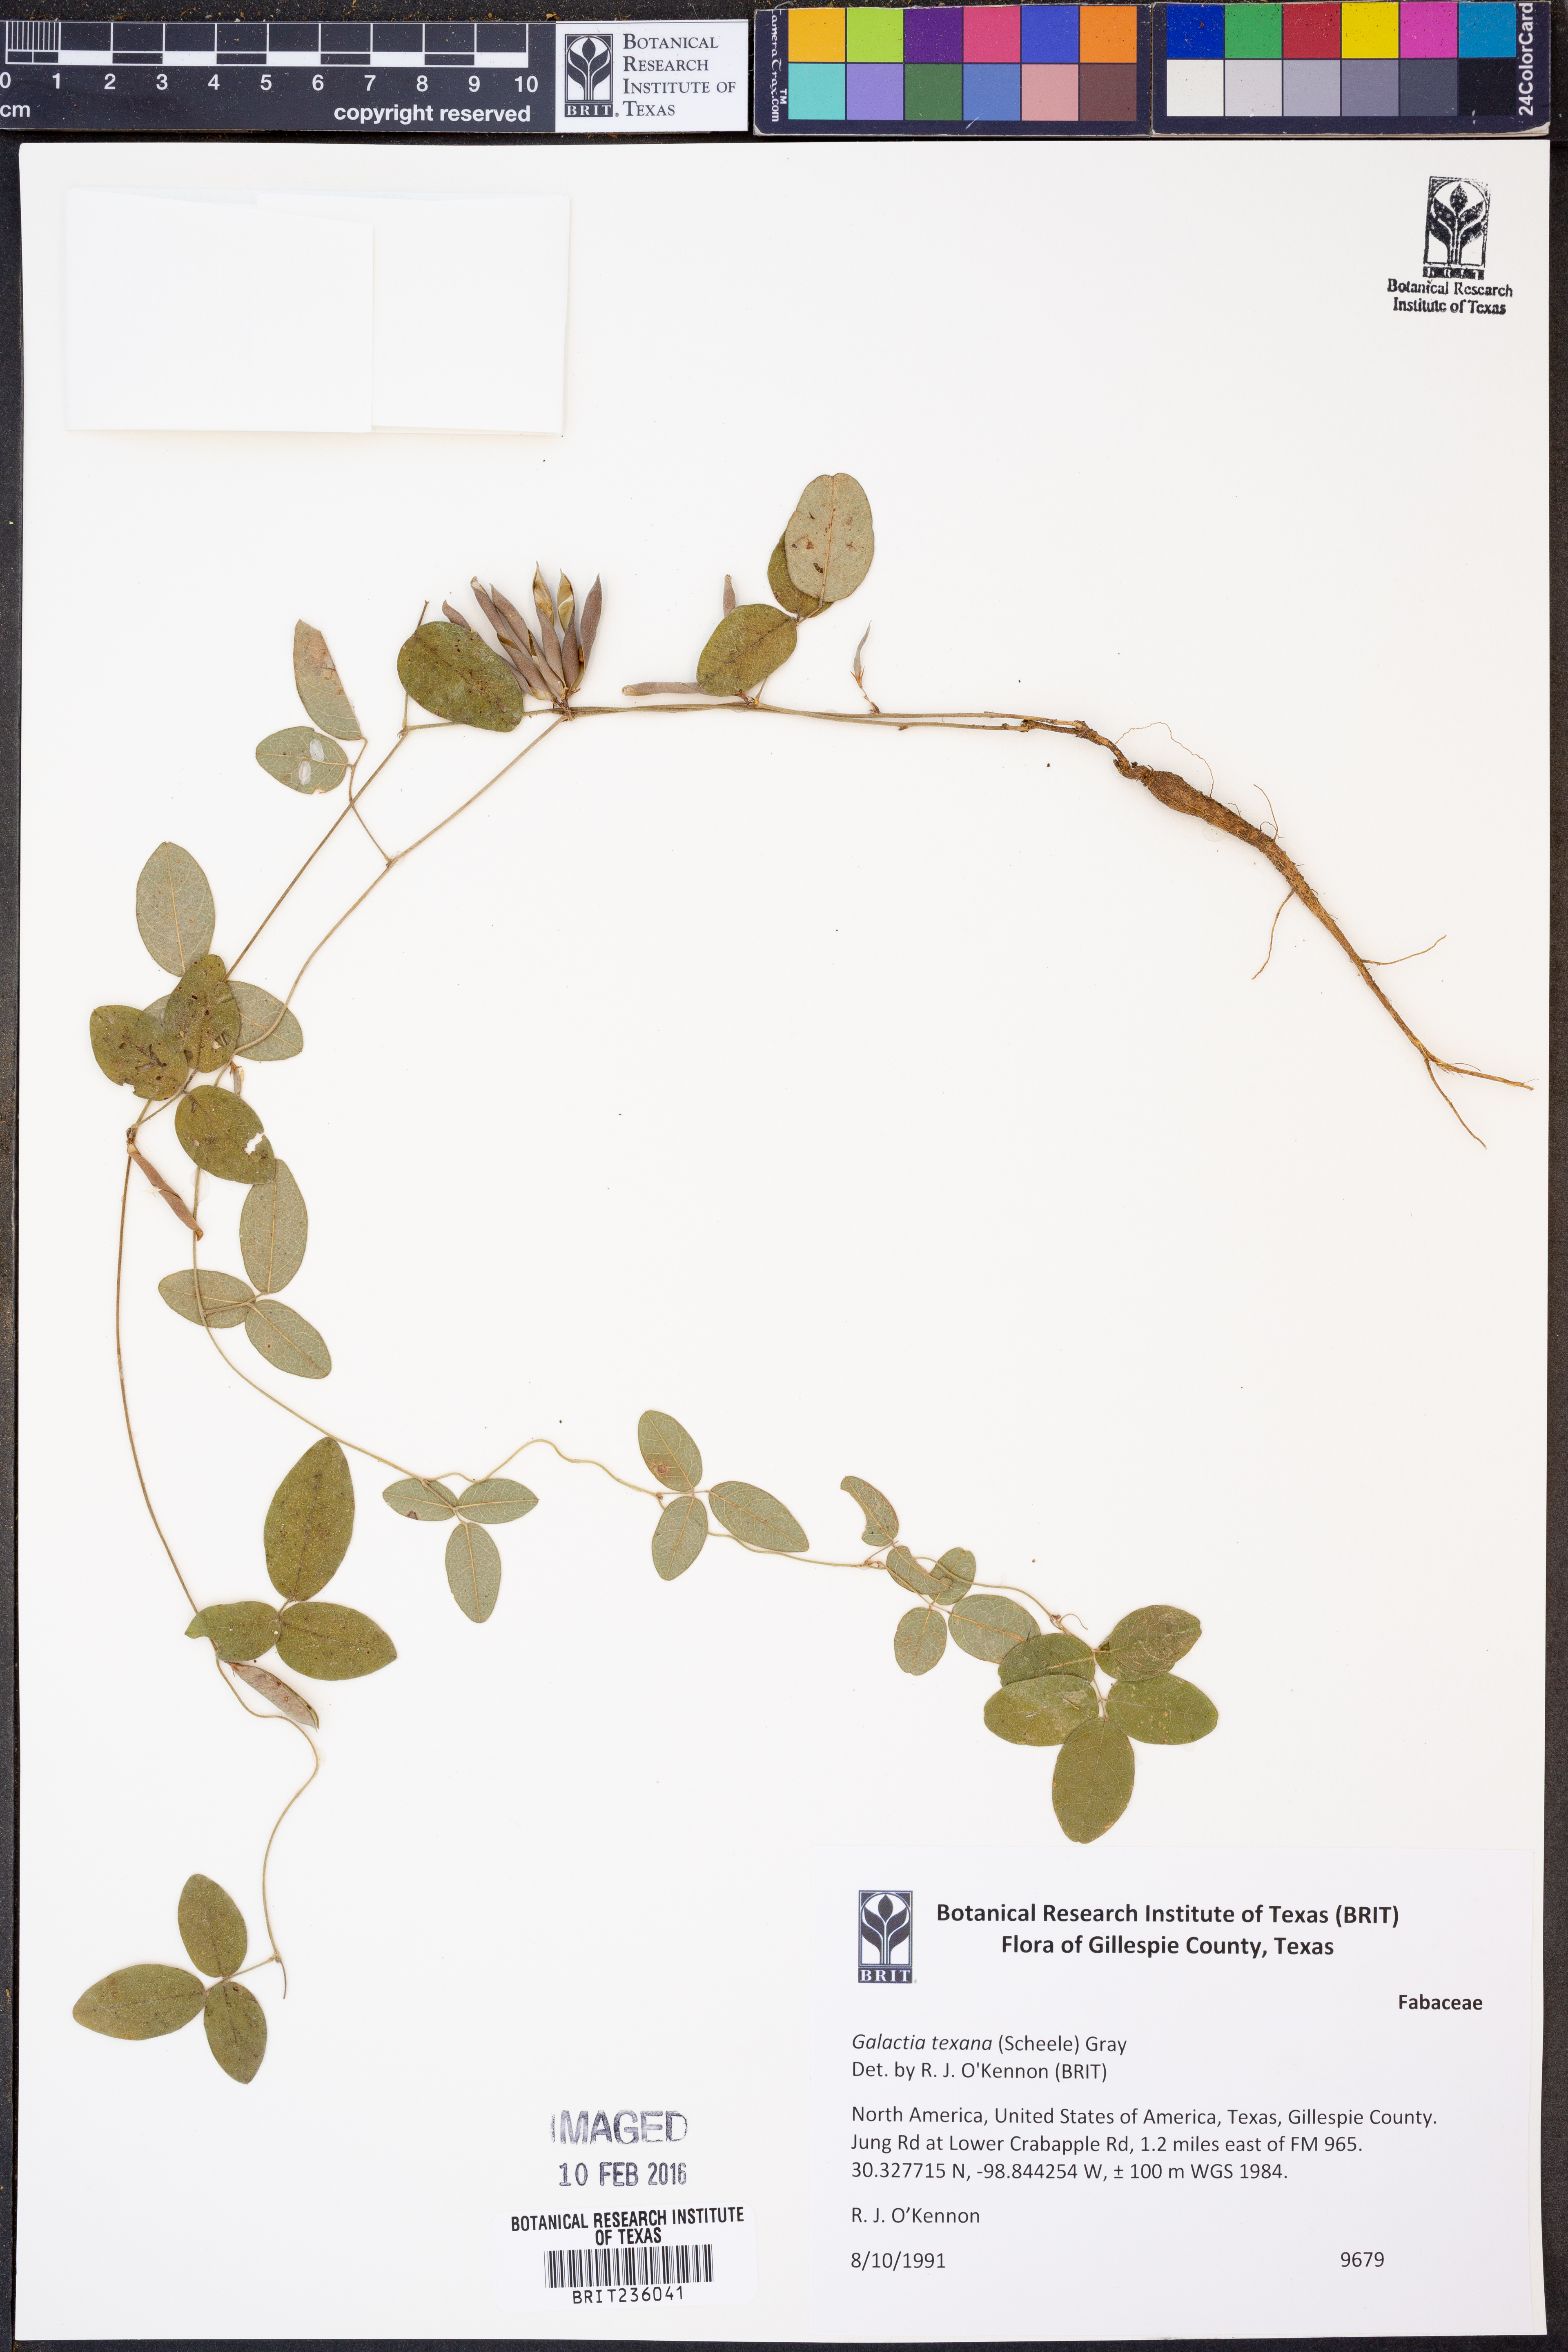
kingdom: Plantae
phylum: Tracheophyta
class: Magnoliopsida
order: Fabales
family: Fabaceae
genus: Galactia
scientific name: Galactia texana
